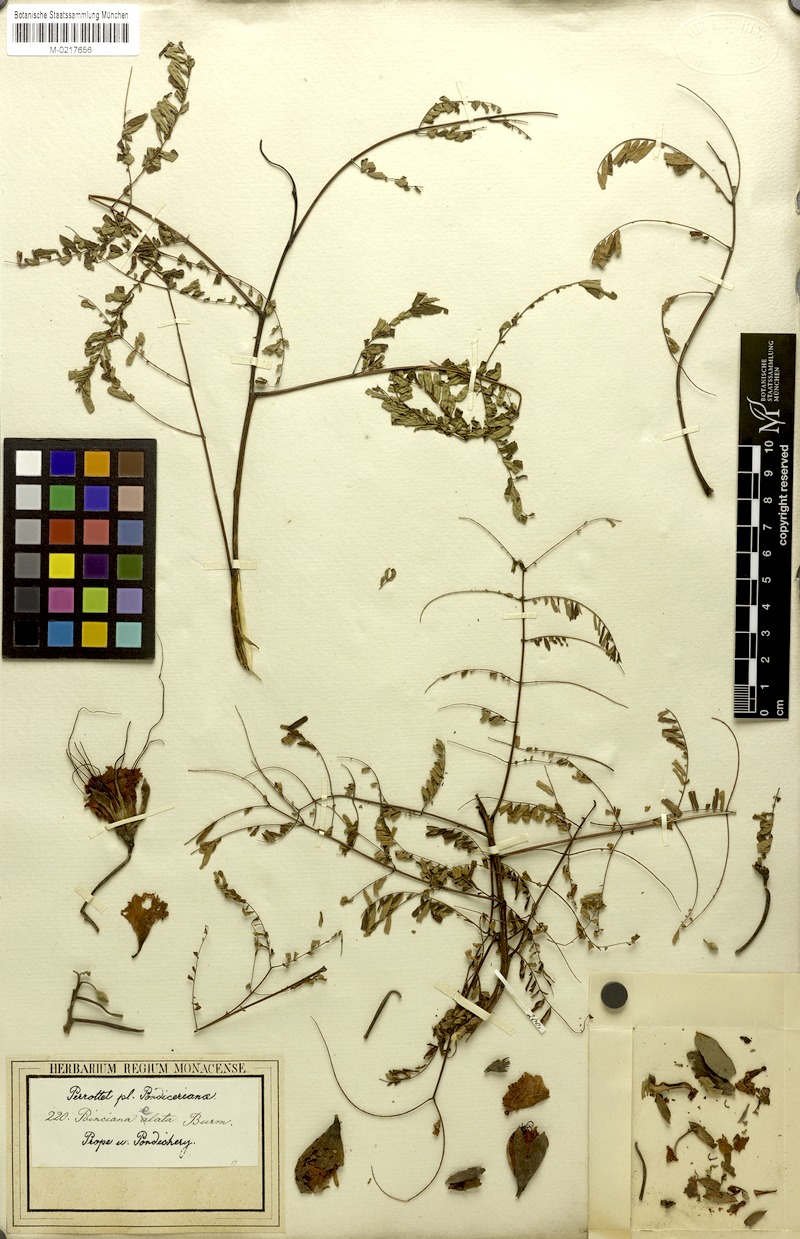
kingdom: Plantae
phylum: Tracheophyta
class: Magnoliopsida
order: Fabales
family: Fabaceae
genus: Delonix
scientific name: Delonix elata
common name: Creamy peacock flower
